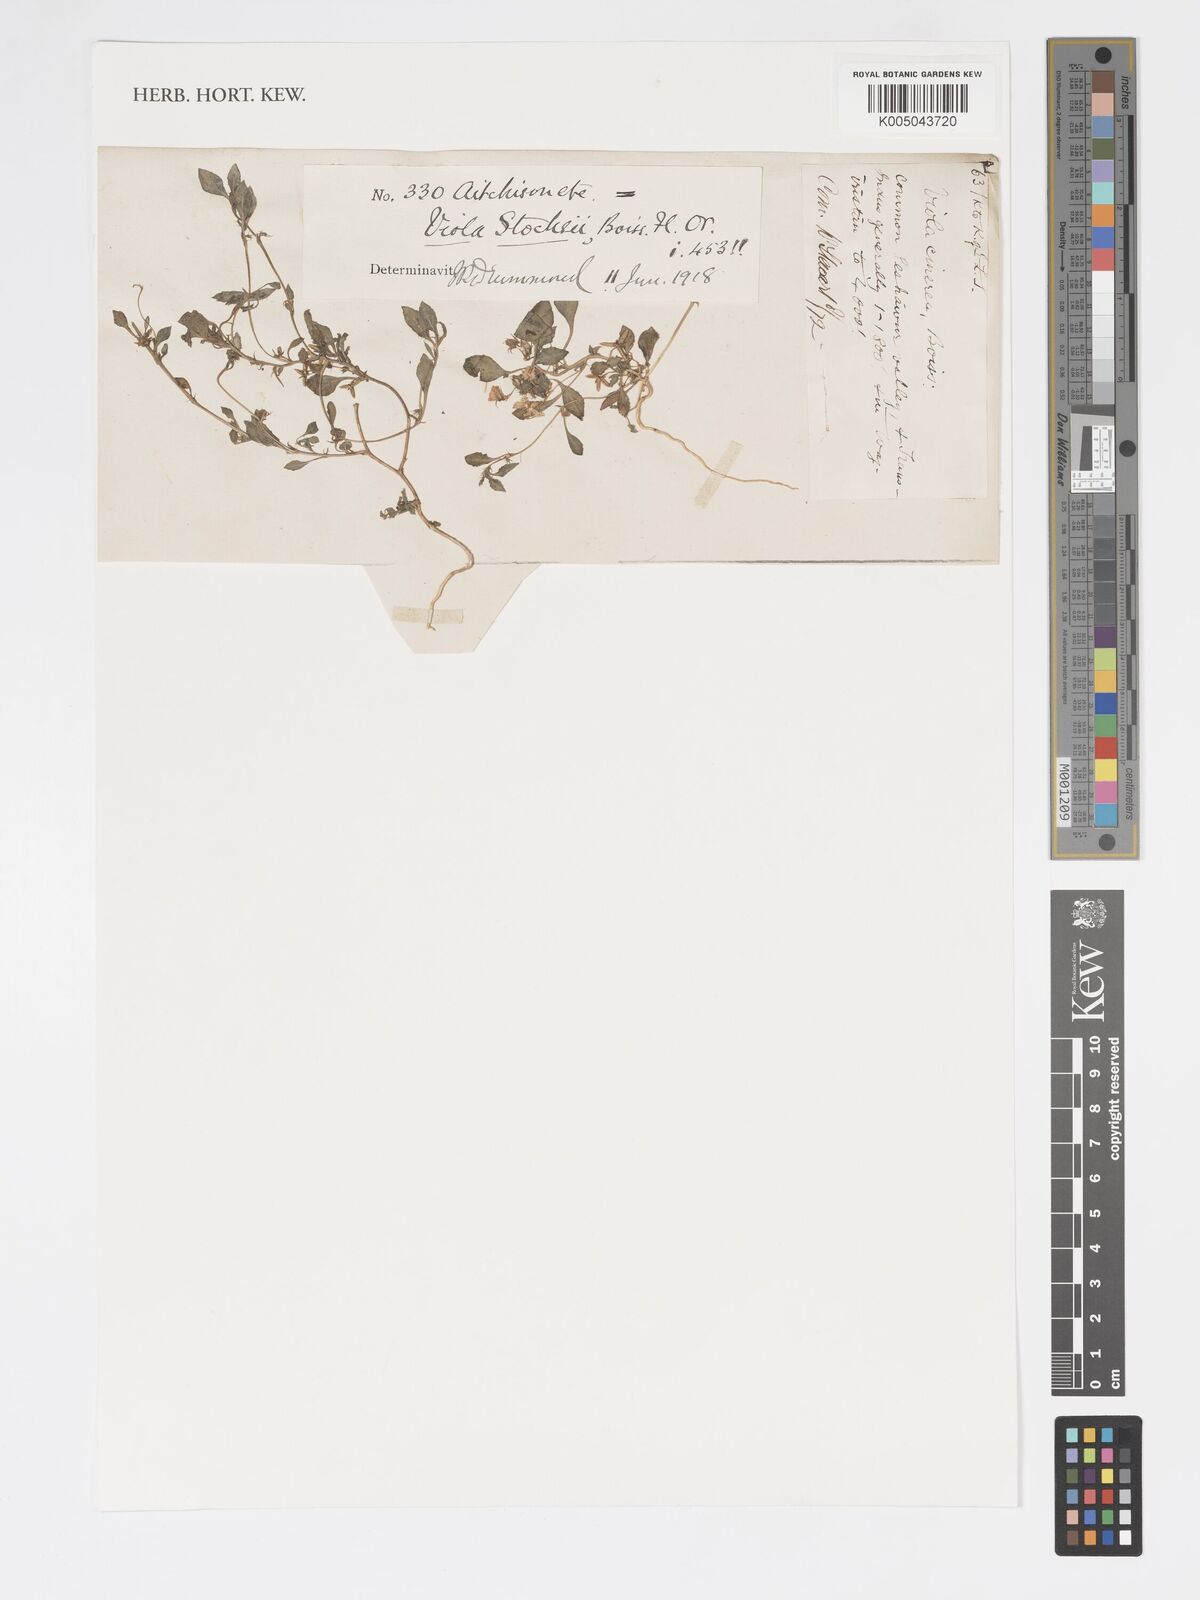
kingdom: Plantae
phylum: Tracheophyta
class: Magnoliopsida
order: Malpighiales
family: Violaceae
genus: Viola
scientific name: Viola stocksii
